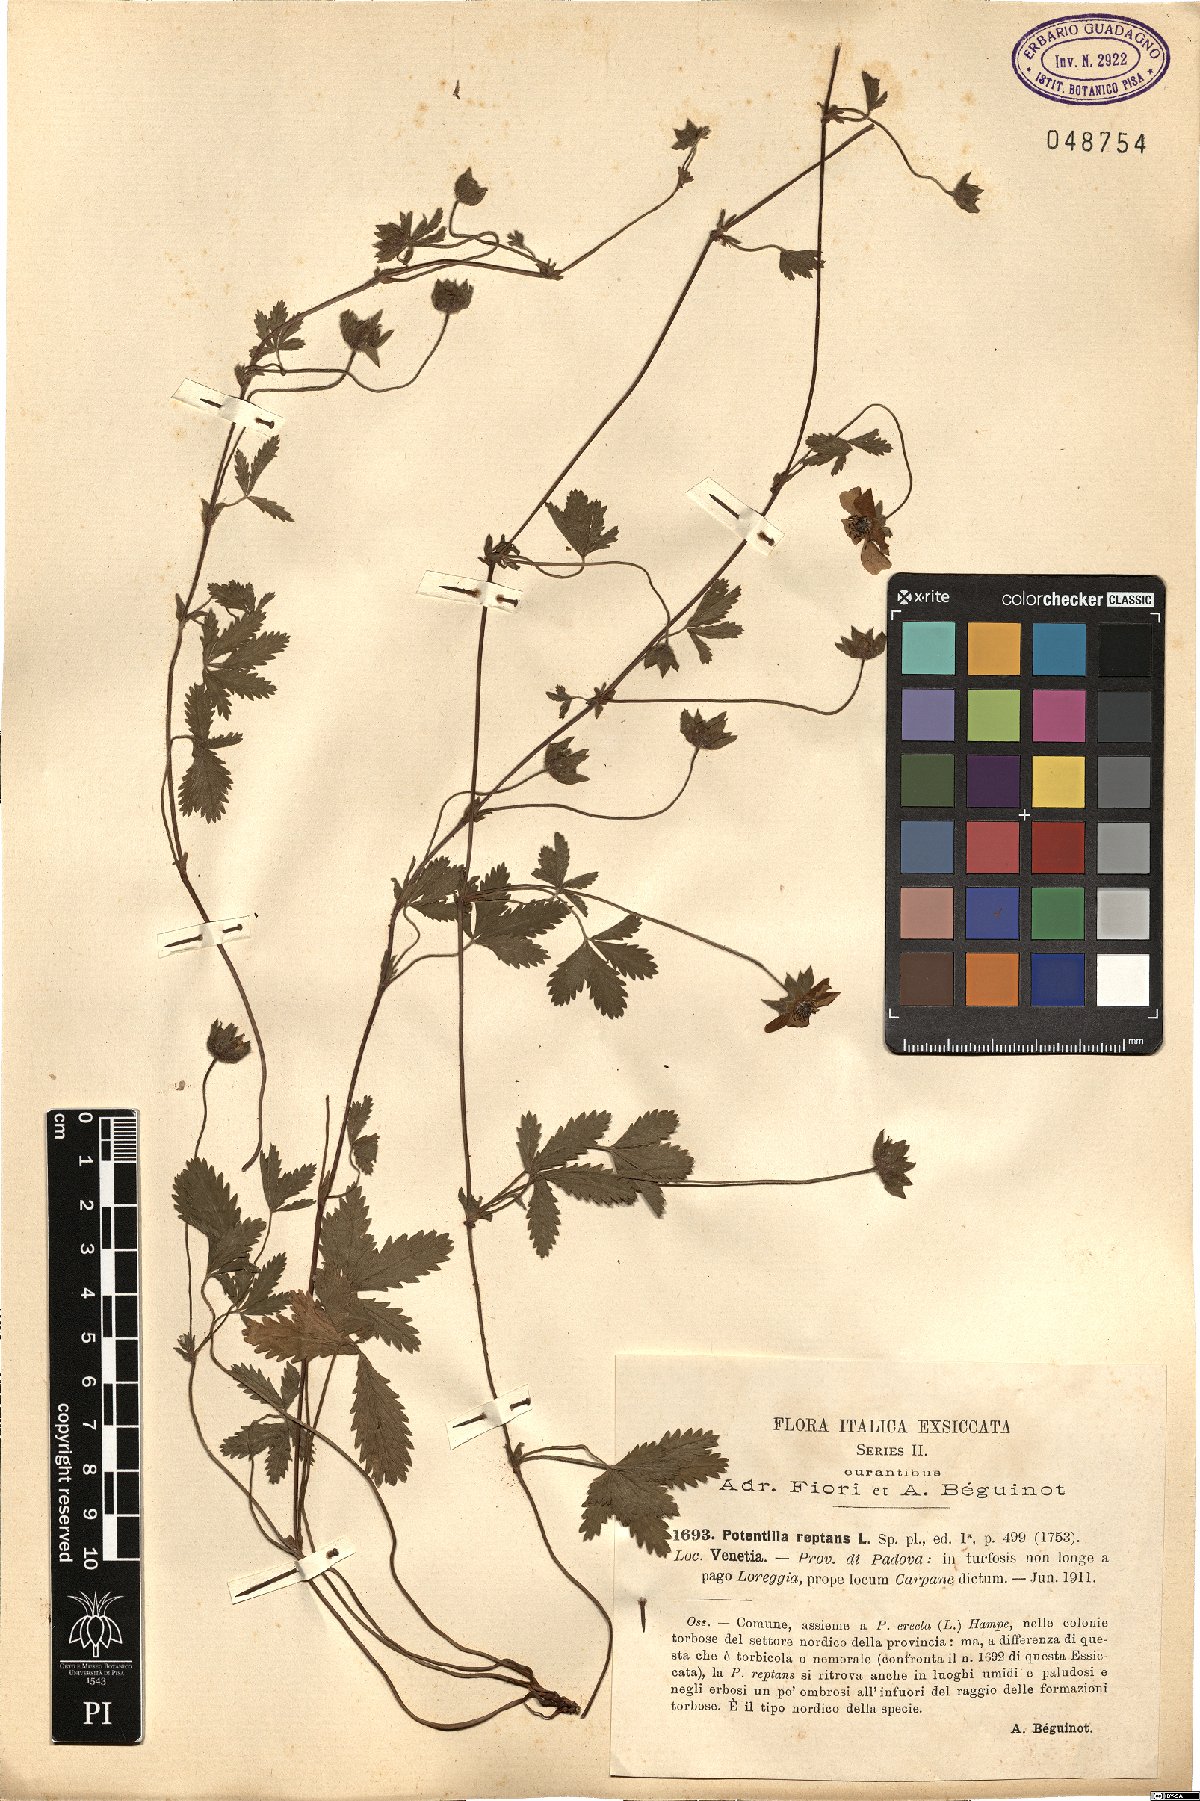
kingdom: Plantae
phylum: Tracheophyta
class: Magnoliopsida
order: Rosales
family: Rosaceae
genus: Potentilla
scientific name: Potentilla reptans
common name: Creeping cinquefoil
